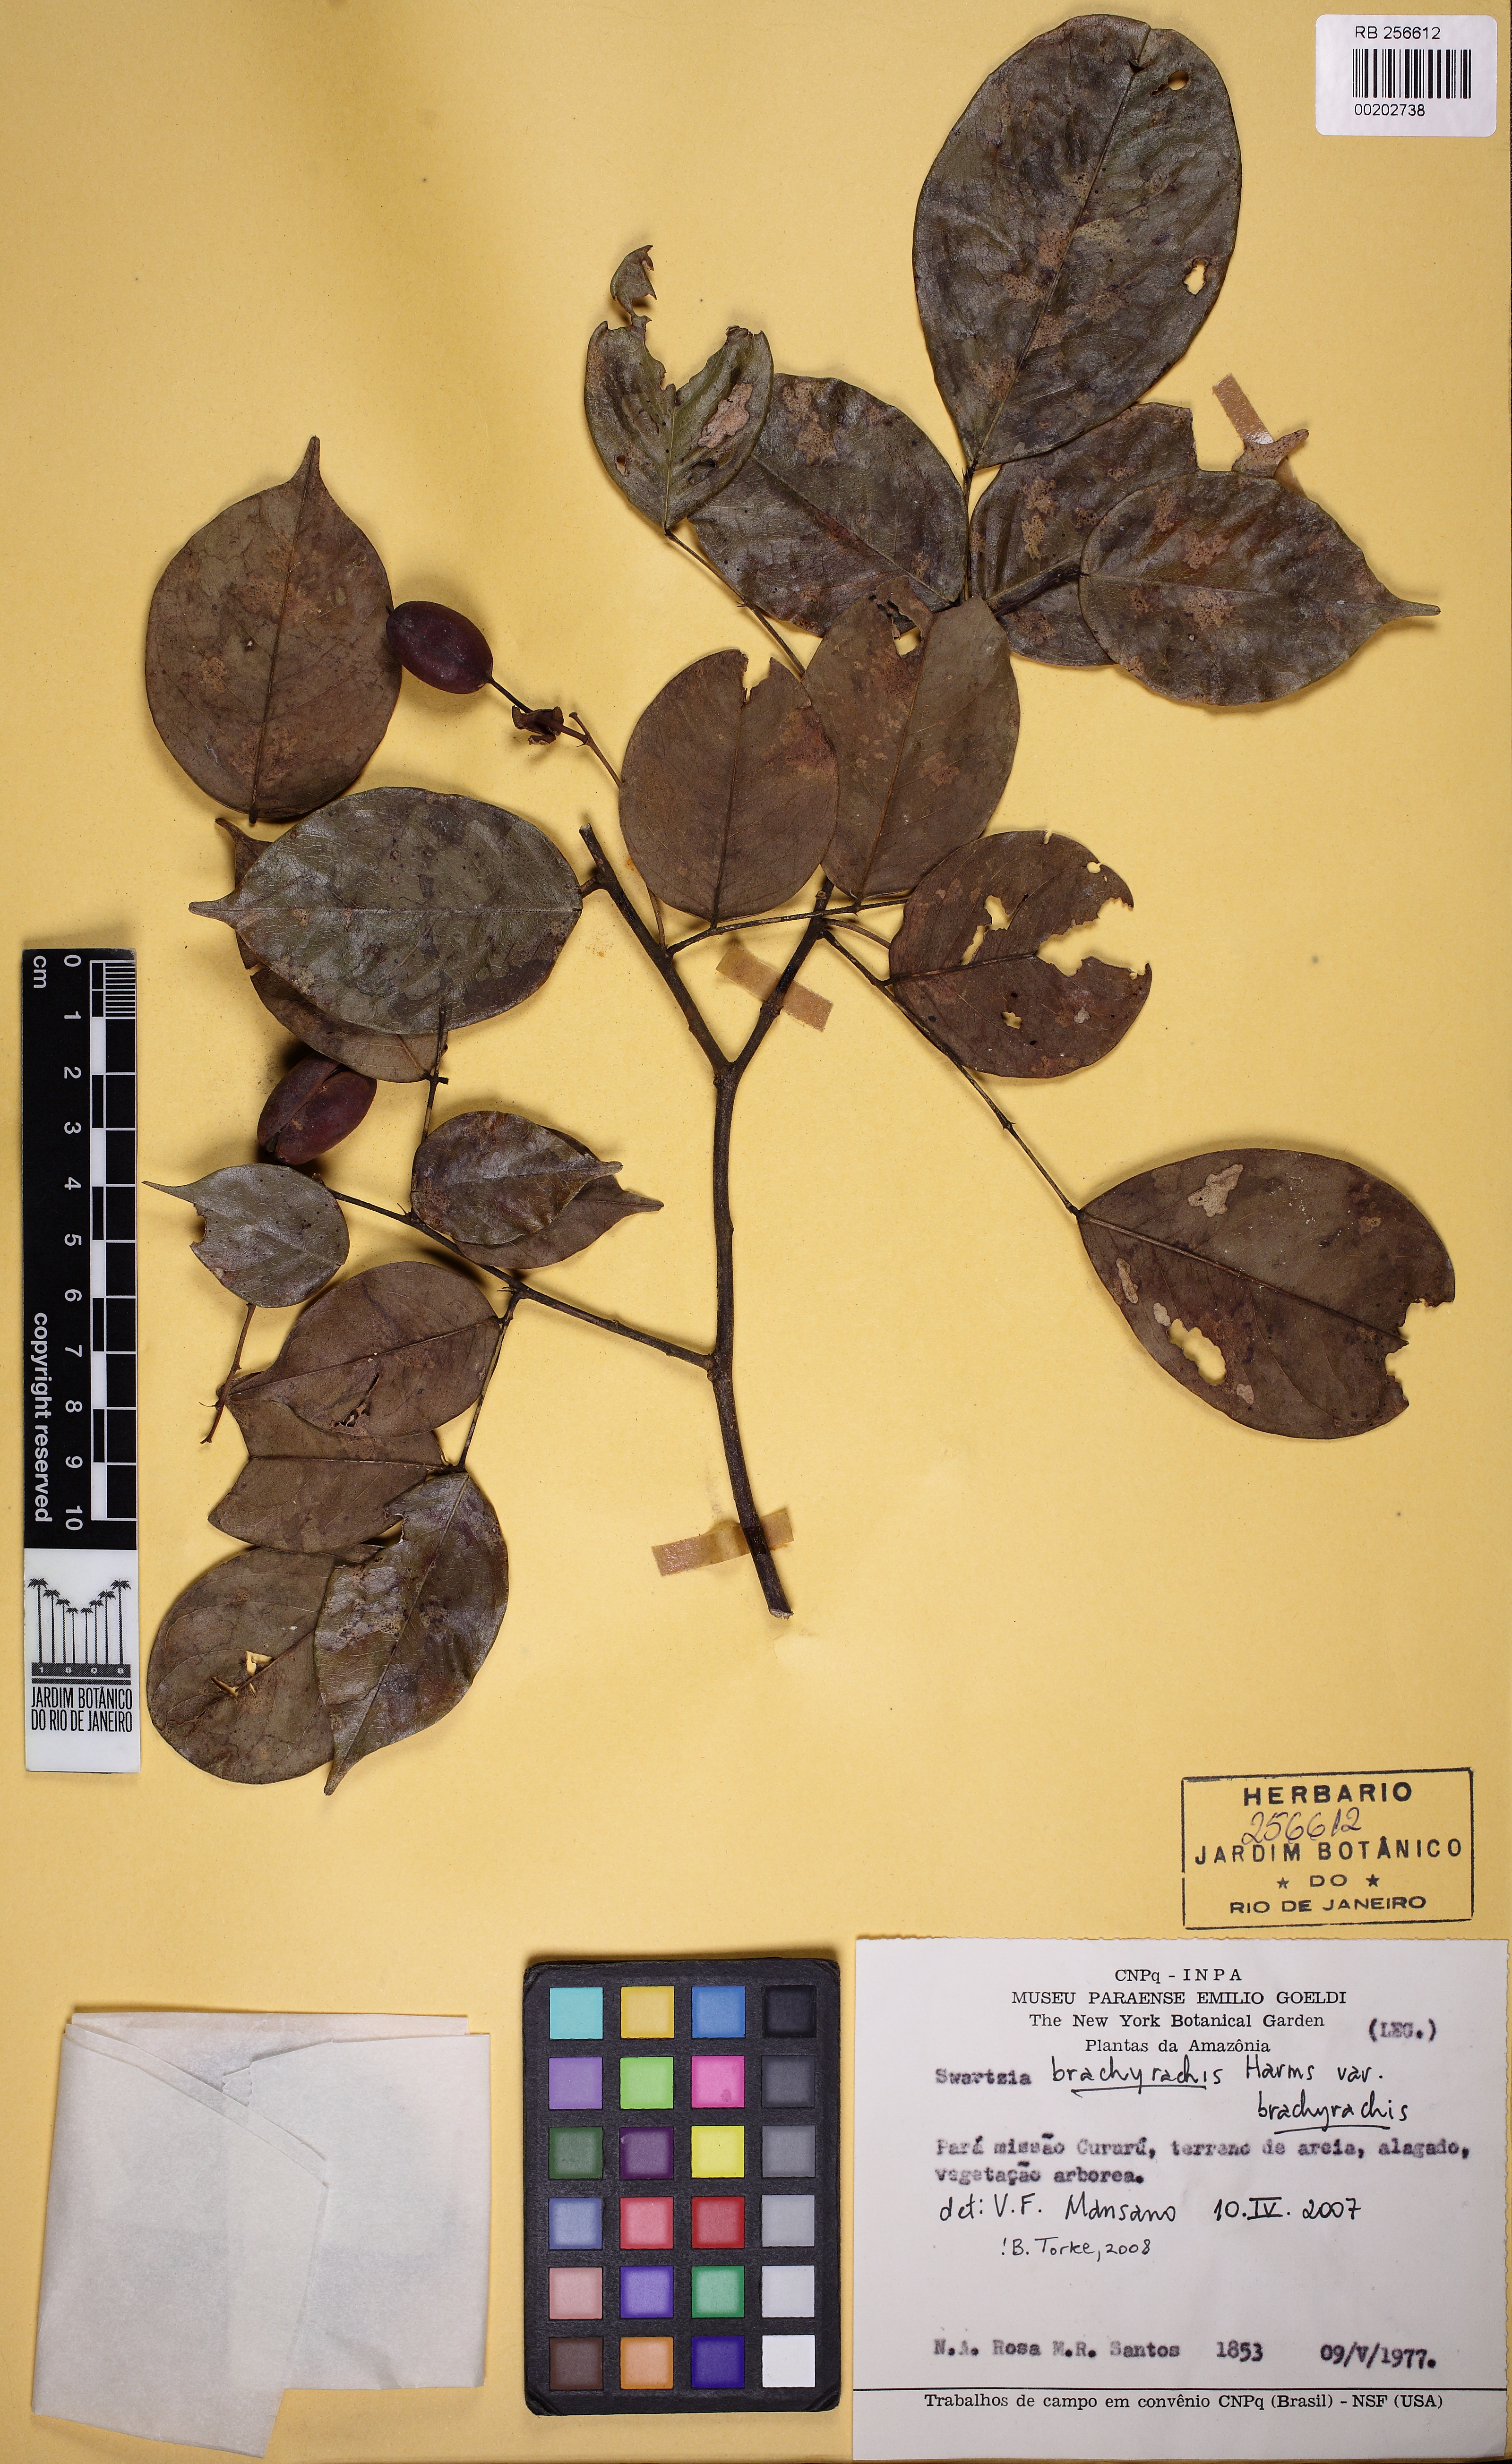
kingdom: Plantae
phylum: Tracheophyta
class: Magnoliopsida
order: Fabales
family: Fabaceae
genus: Swartzia
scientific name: Swartzia brachyrhachis
